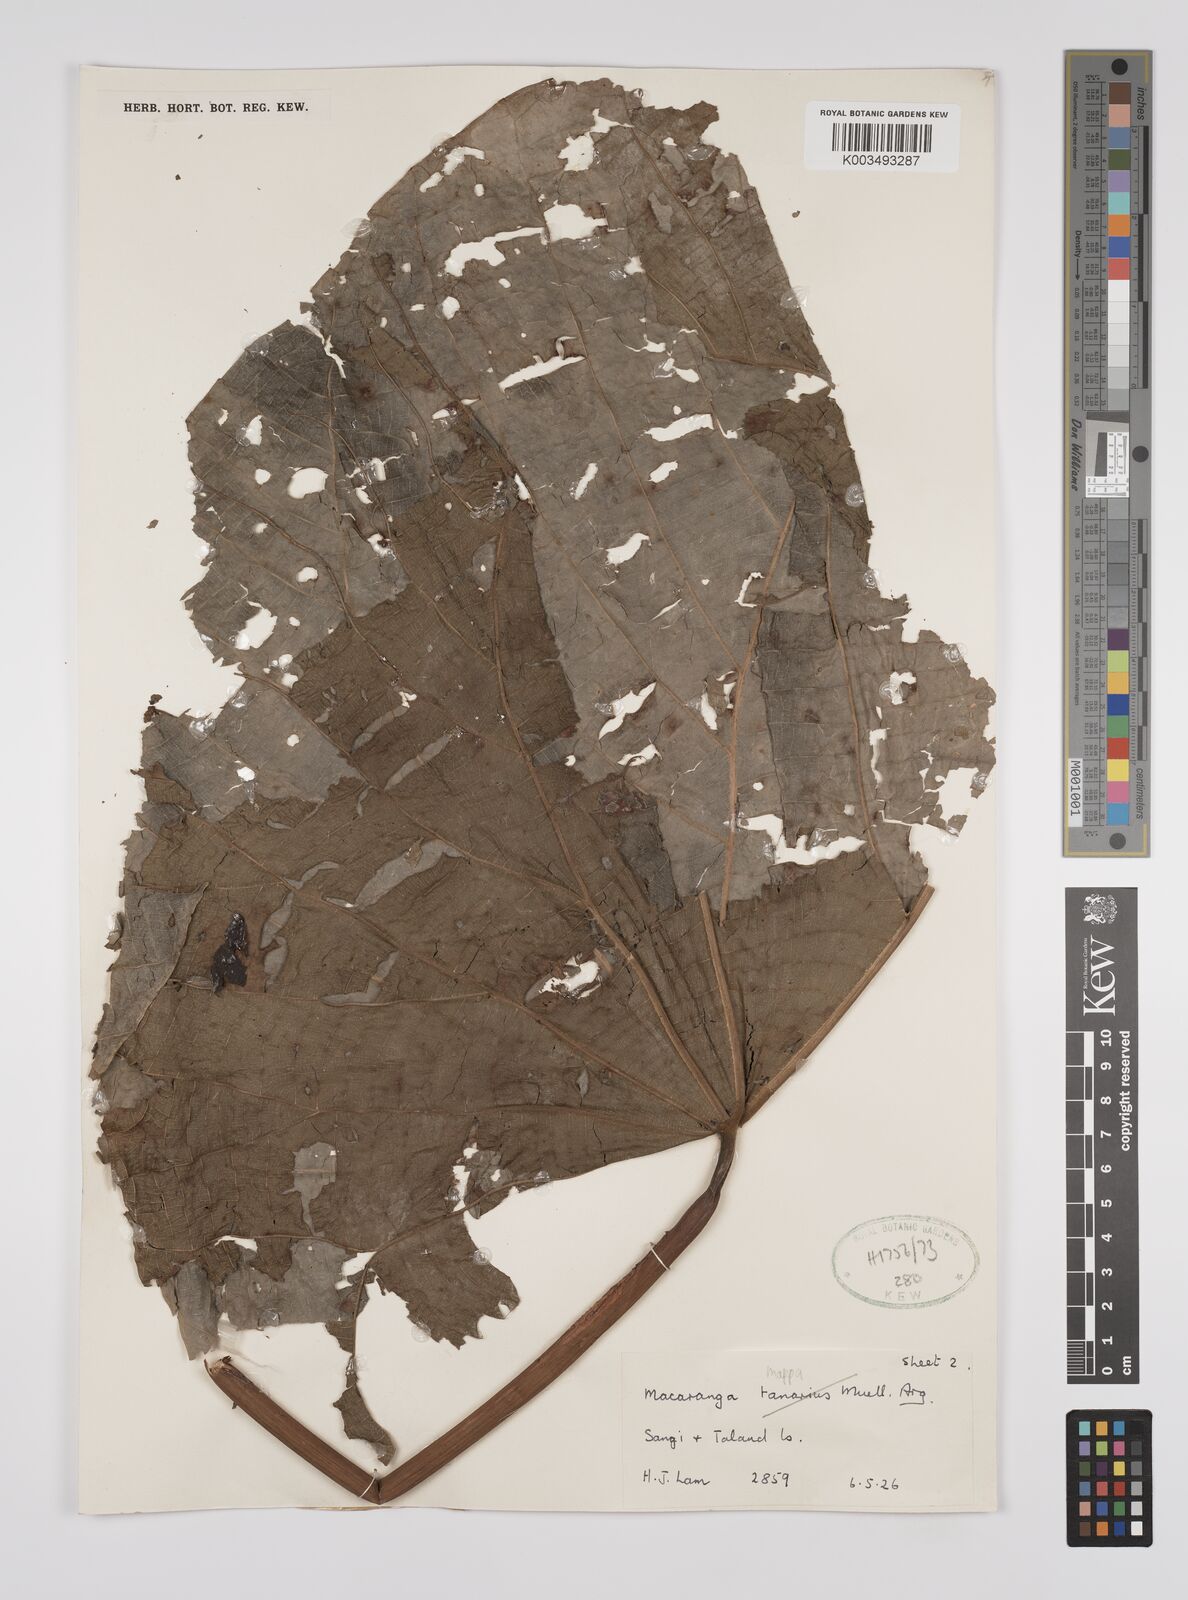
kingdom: Plantae
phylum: Tracheophyta
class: Magnoliopsida
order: Malpighiales
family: Euphorbiaceae
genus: Macaranga
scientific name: Macaranga mappa
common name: Pengua
